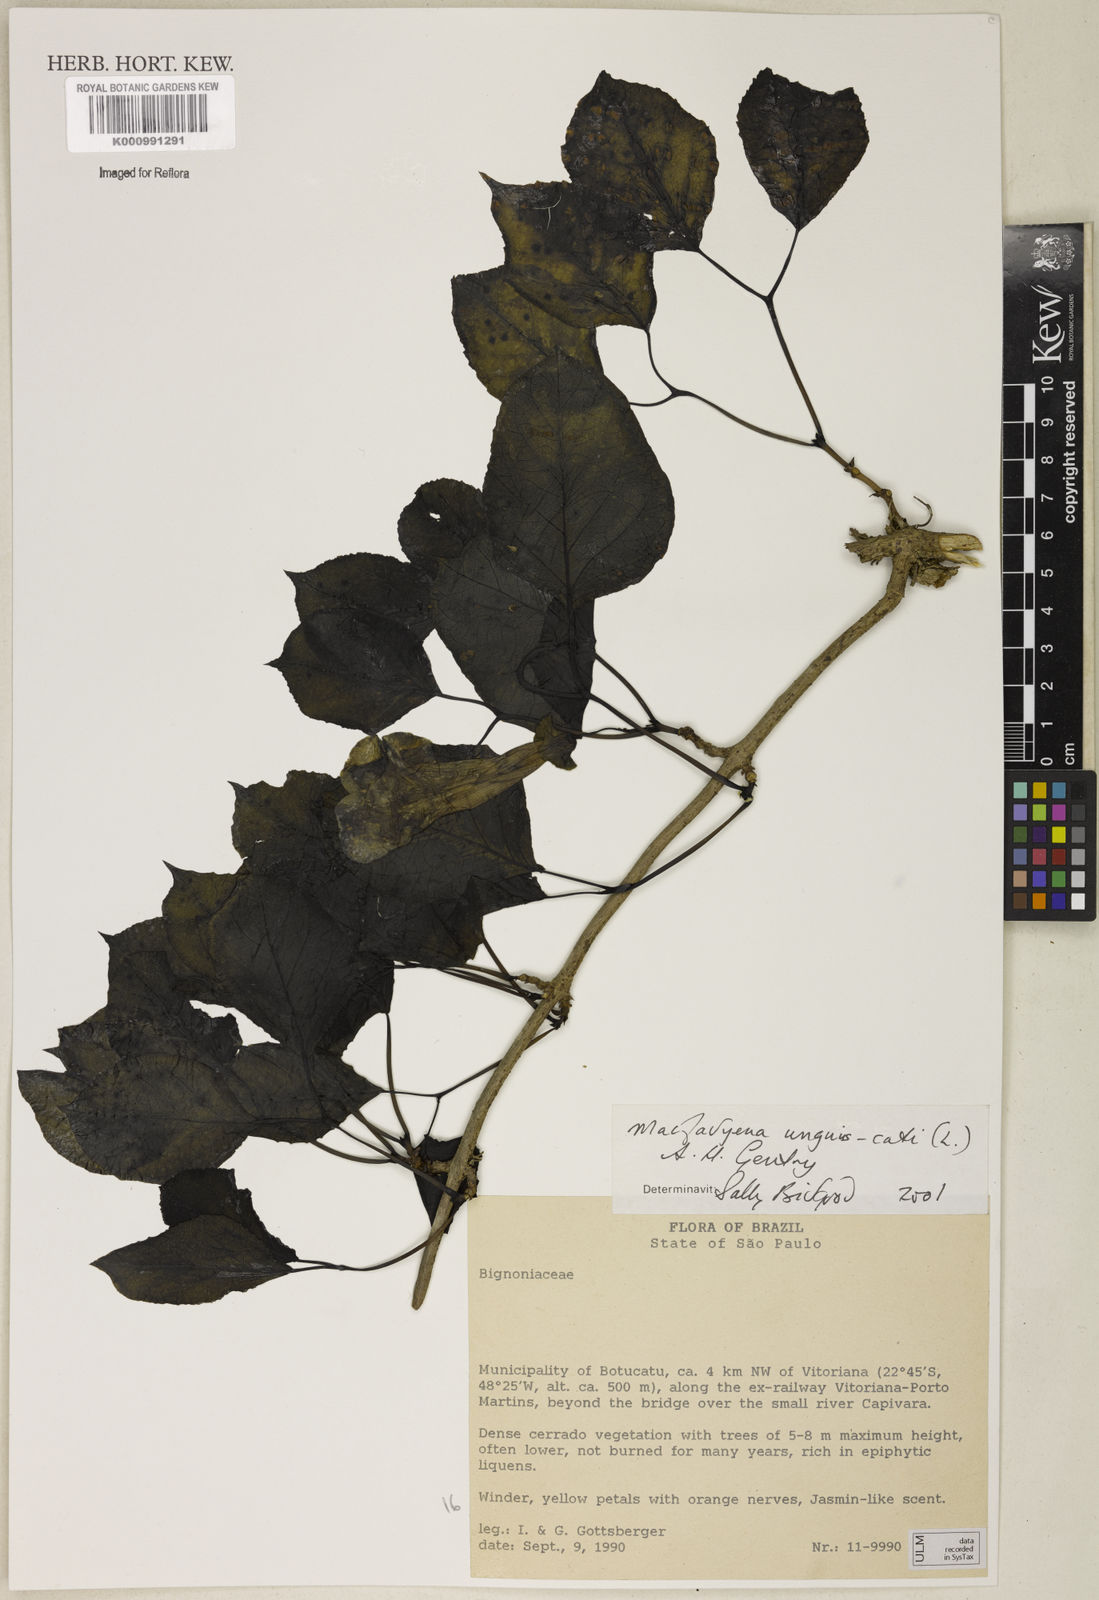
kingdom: Plantae
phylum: Tracheophyta
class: Magnoliopsida
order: Lamiales
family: Bignoniaceae
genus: Dolichandra
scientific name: Dolichandra unguis-cati
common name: Catclaw vine
